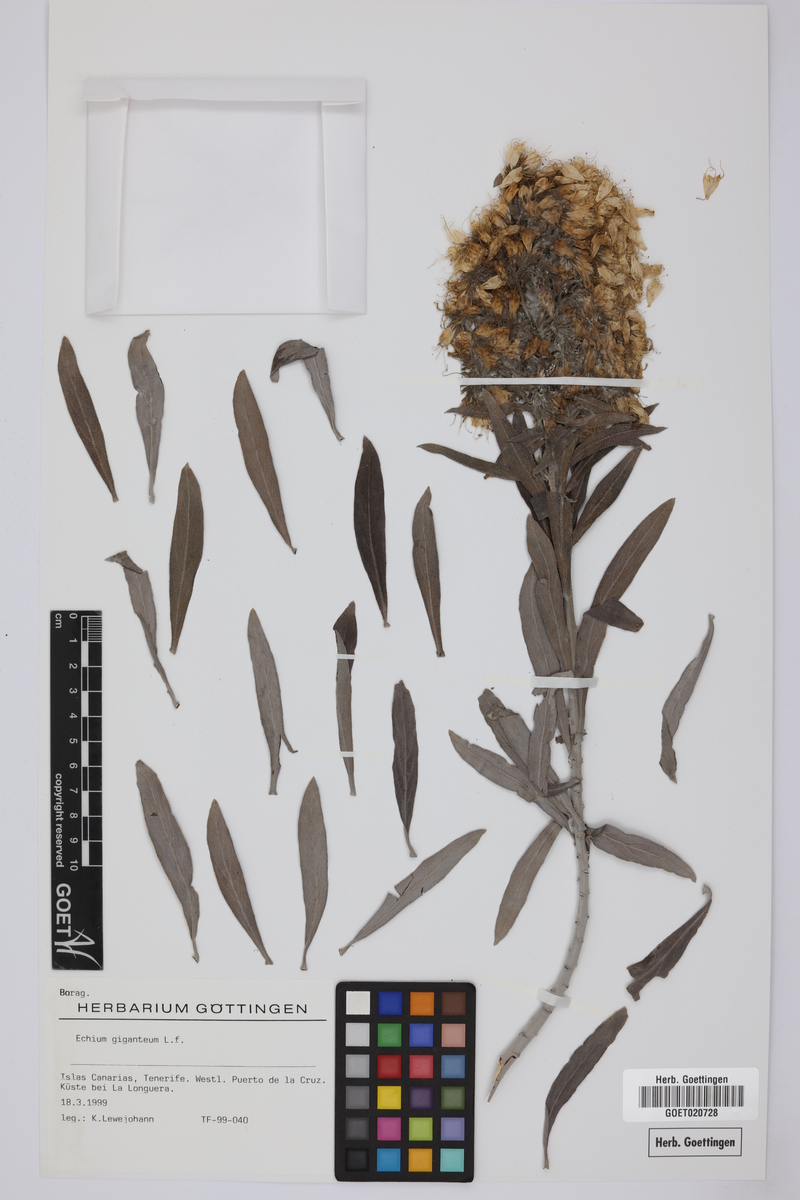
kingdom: Plantae
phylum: Tracheophyta
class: Magnoliopsida
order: Boraginales
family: Boraginaceae
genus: Echium
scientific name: Echium giganteum
